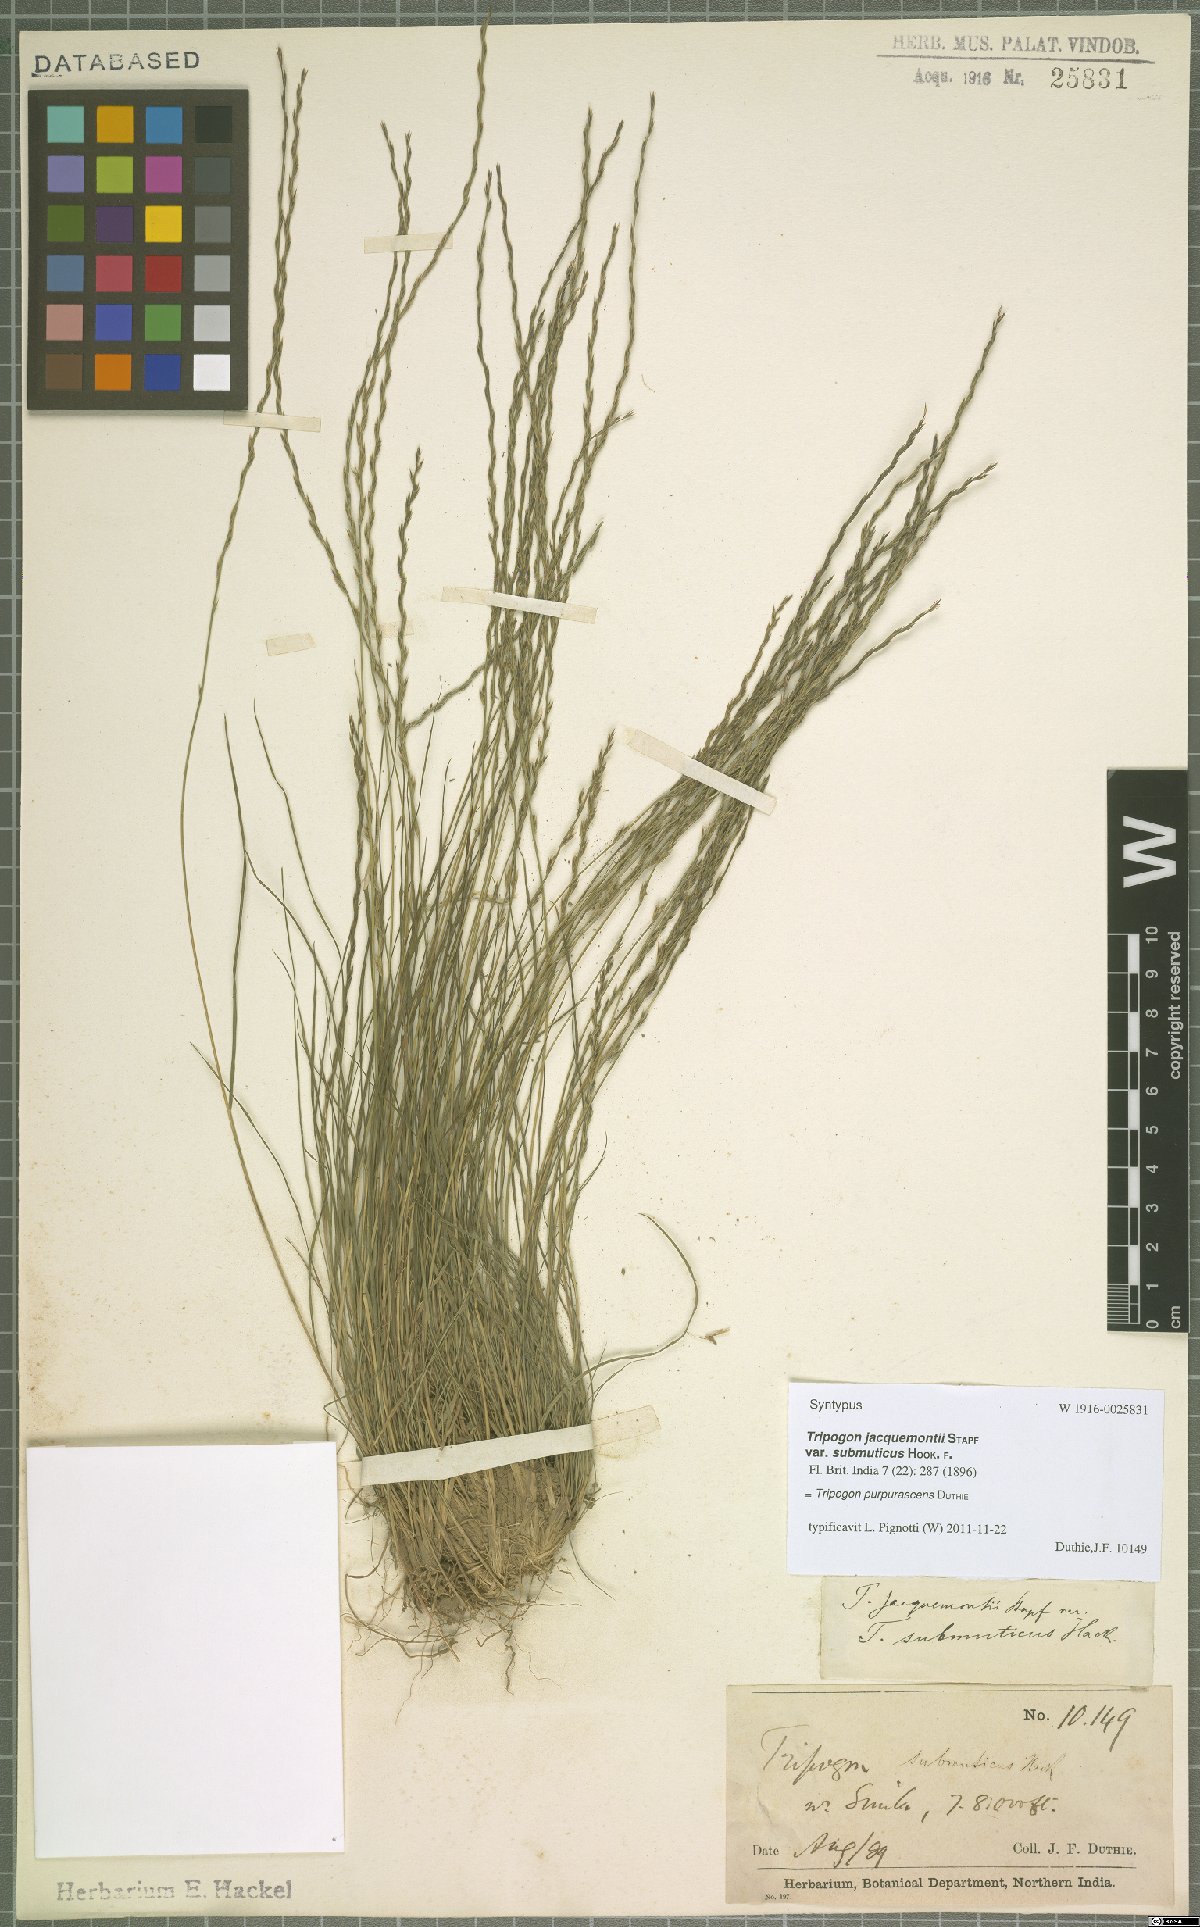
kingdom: Plantae
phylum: Tracheophyta
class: Liliopsida
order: Poales
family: Poaceae
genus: Tripogon
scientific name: Tripogon purpurascens
